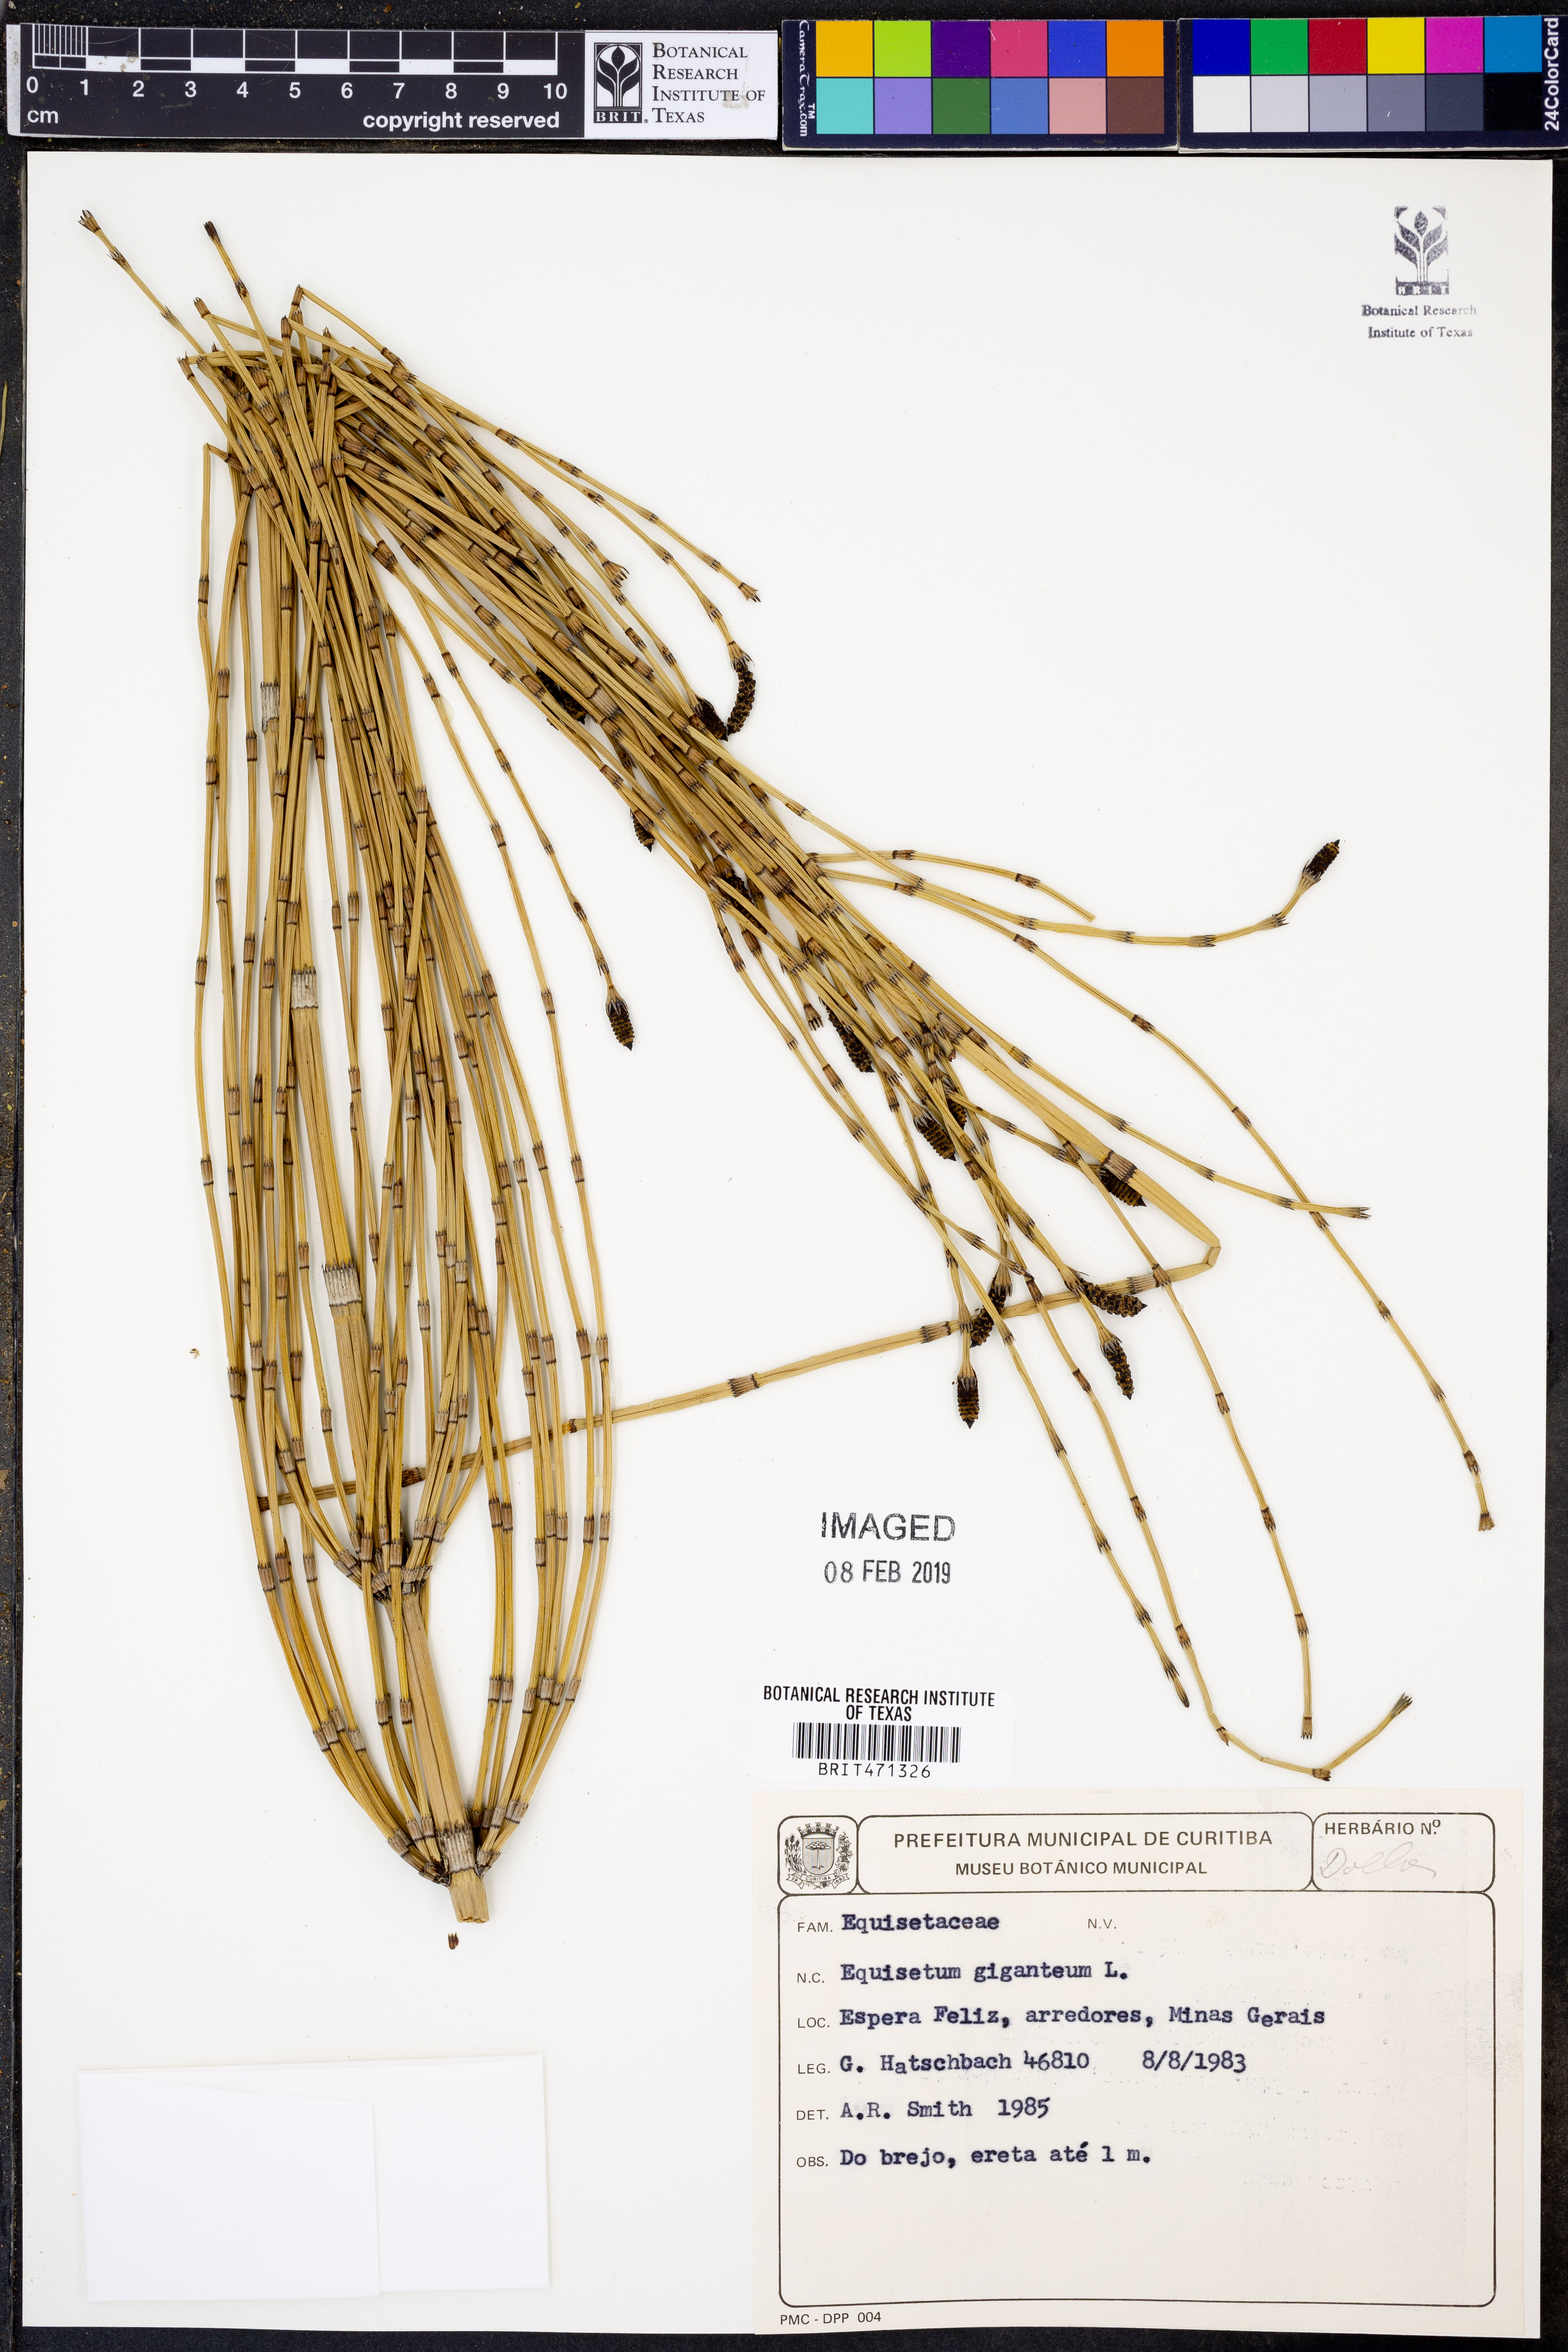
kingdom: Plantae
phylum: Tracheophyta
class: Polypodiopsida
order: Equisetales
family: Equisetaceae
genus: Equisetum
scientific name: Equisetum giganteum
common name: Giant horsetail
